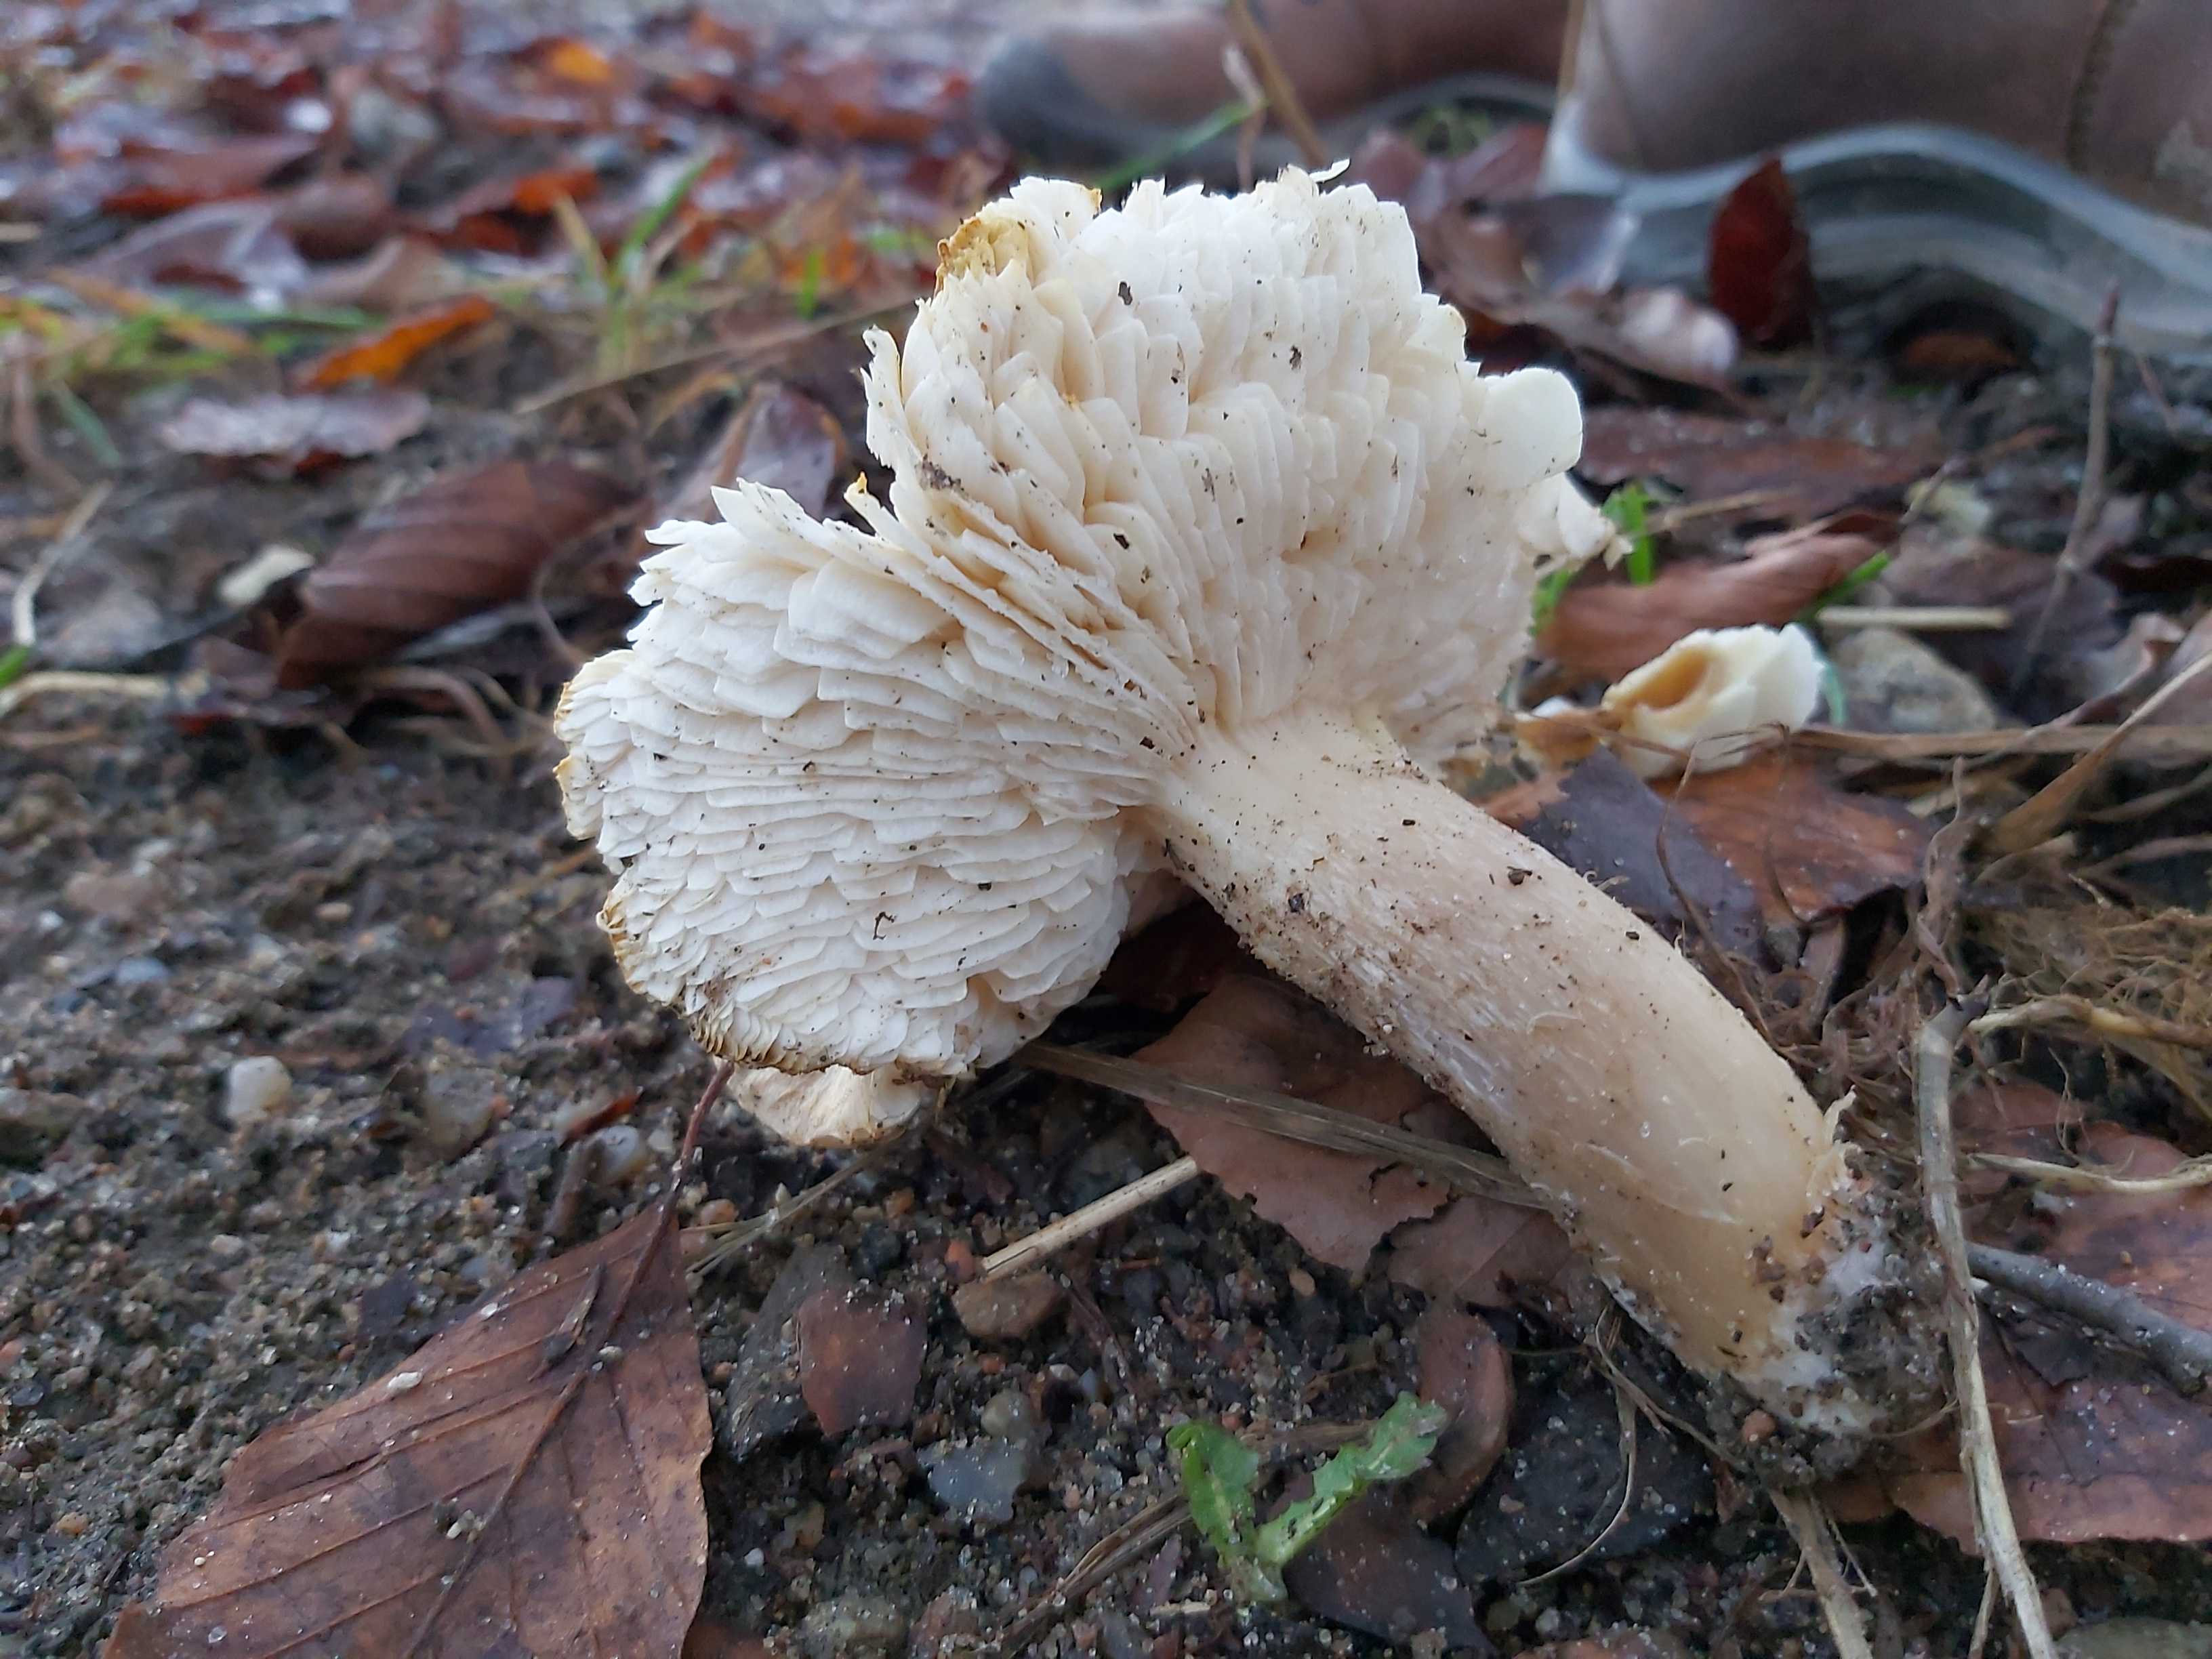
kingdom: Fungi
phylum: Basidiomycota
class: Agaricomycetes
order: Agaricales
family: Tricholomataceae
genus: Tricholoma
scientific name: Tricholoma scalpturatum
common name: gulplettet ridderhat
